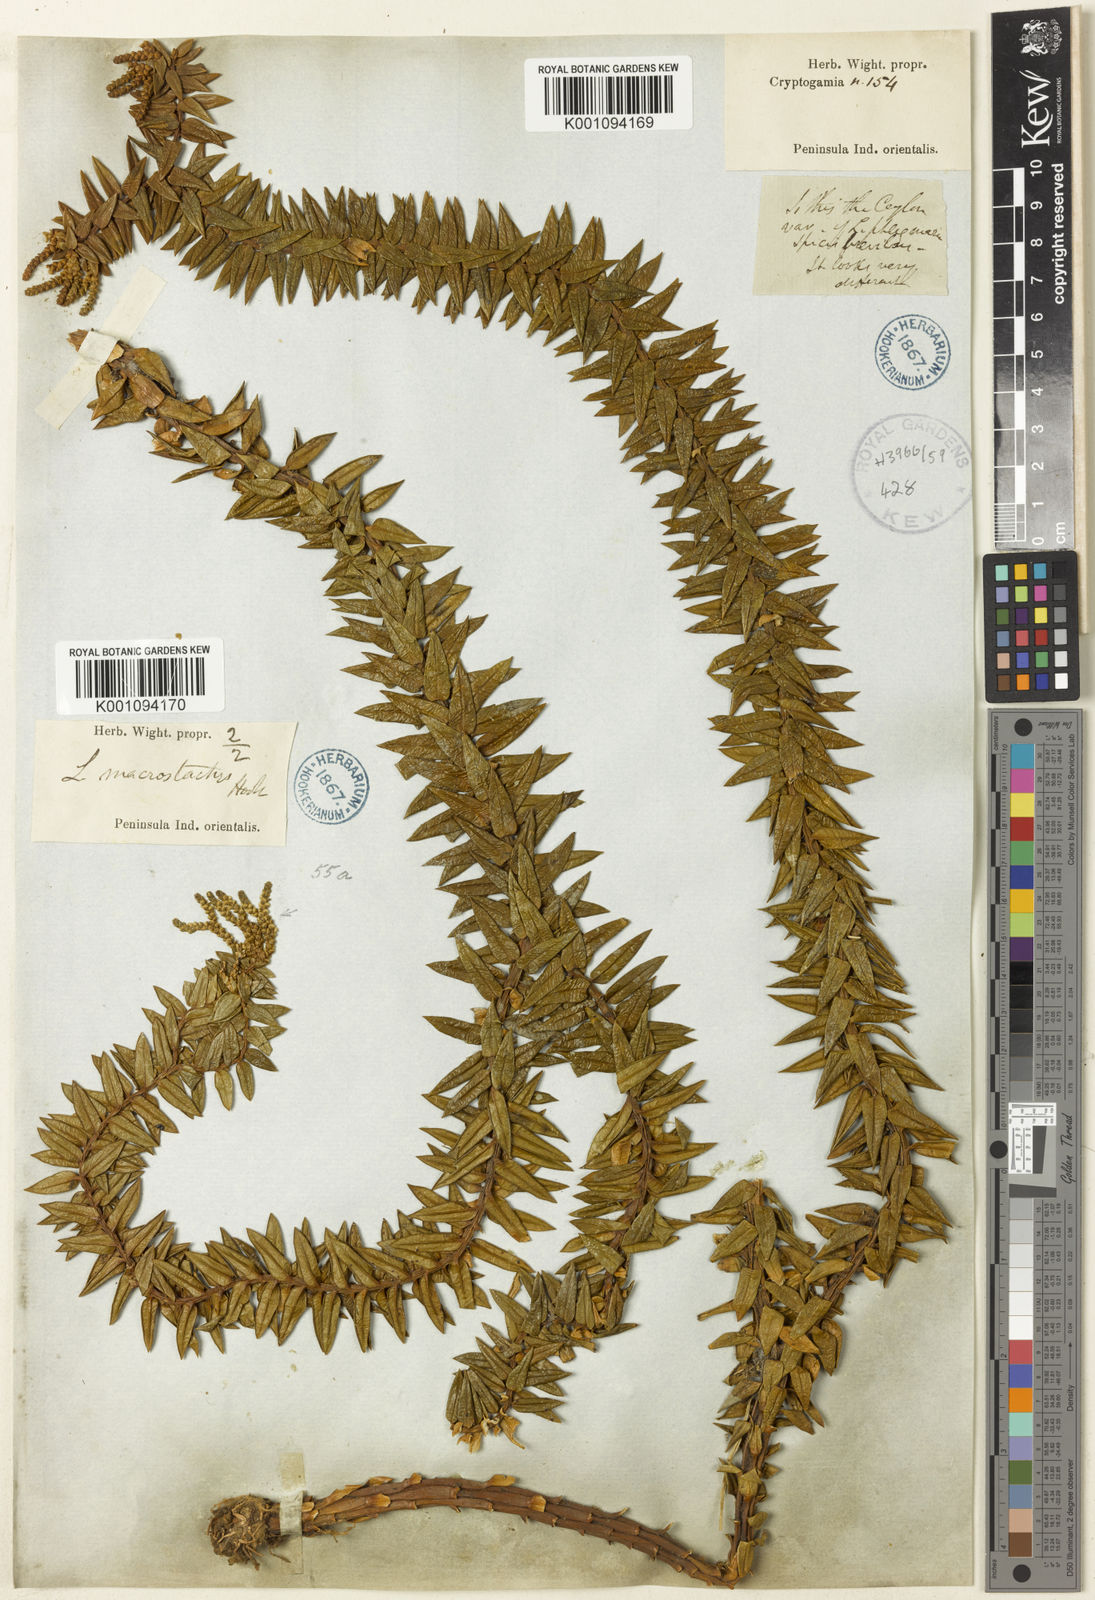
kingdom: Plantae
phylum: Tracheophyta
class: Lycopodiopsida
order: Lycopodiales
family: Lycopodiaceae
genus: Phlegmariurus
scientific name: Phlegmariurus phyllanthus
